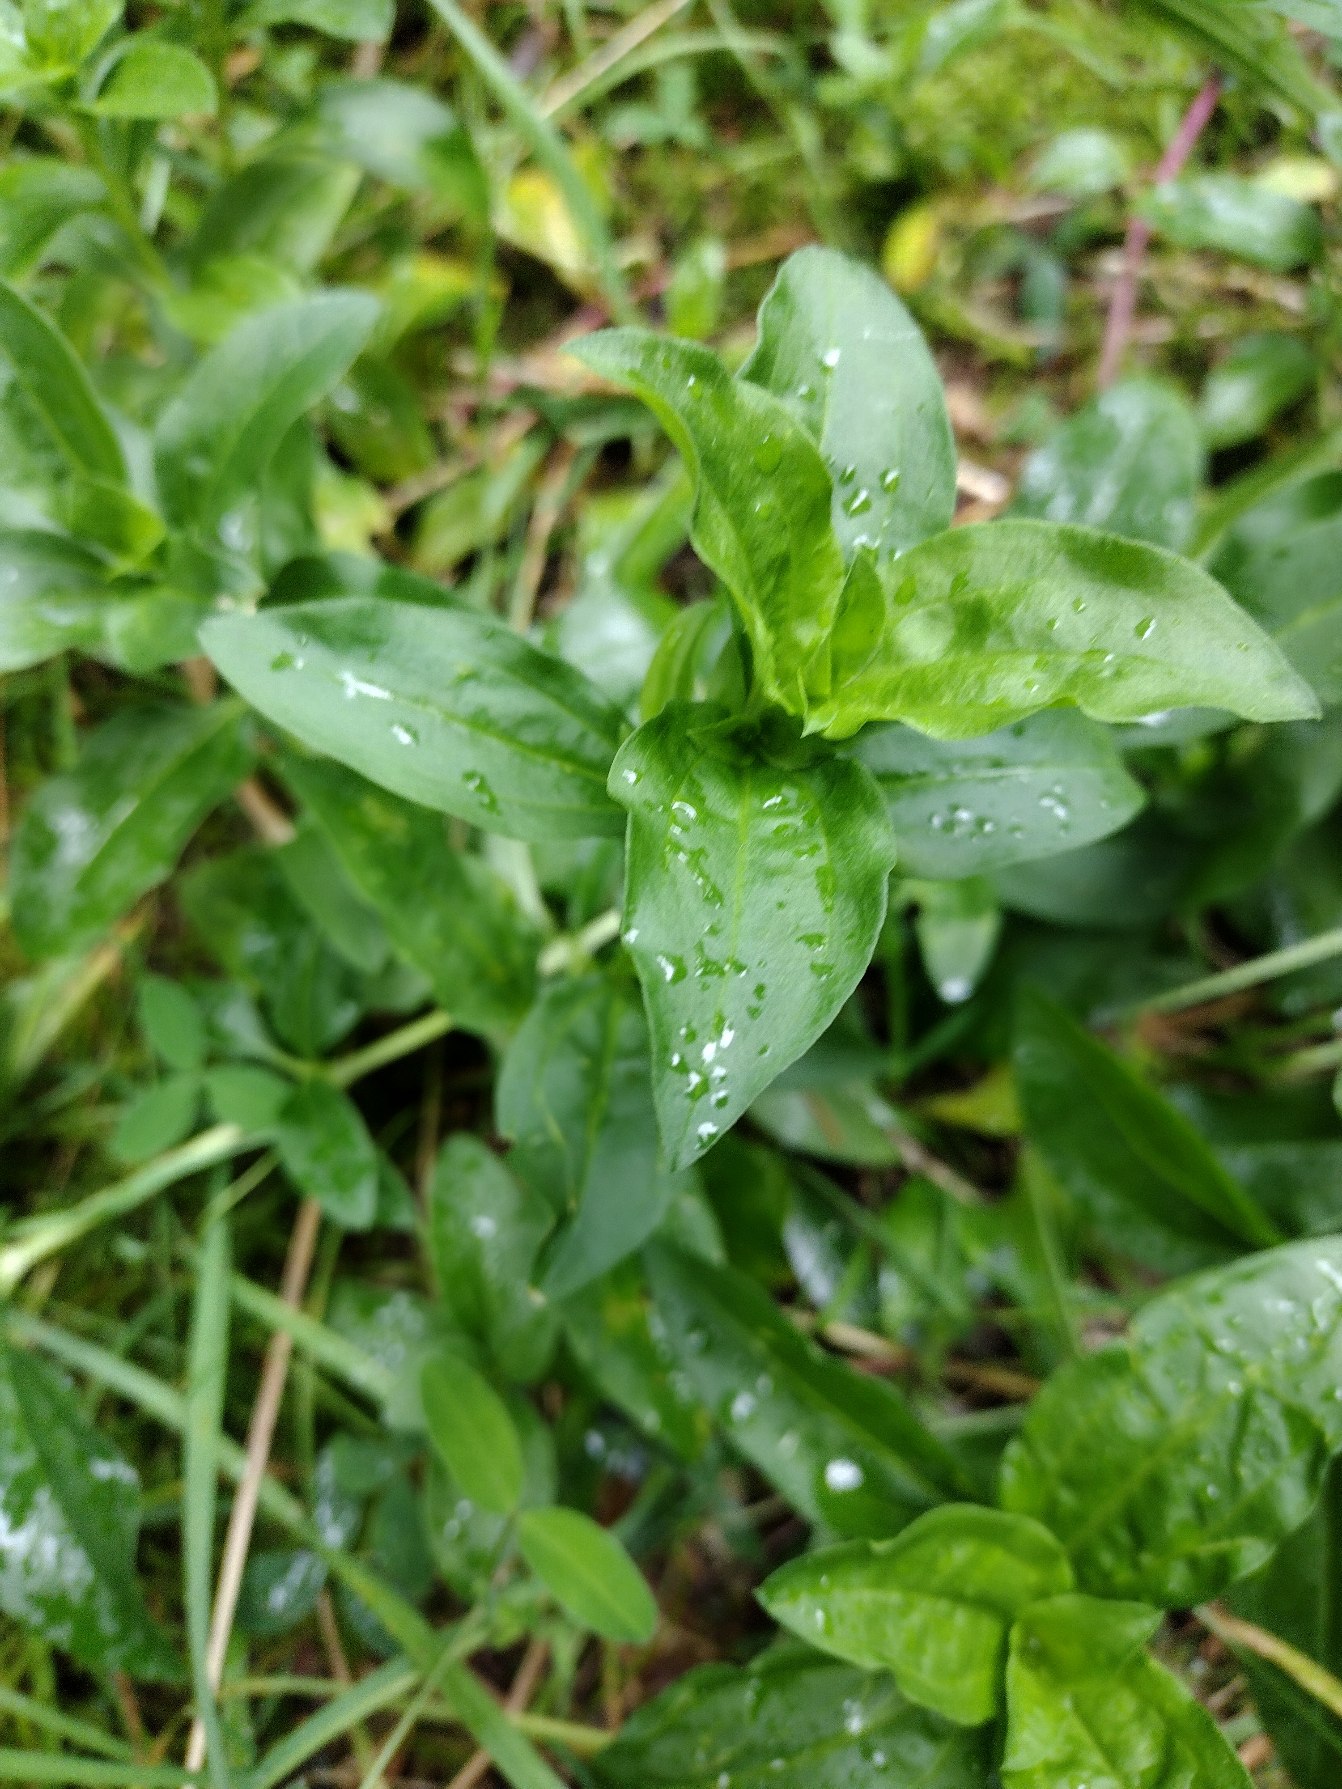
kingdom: Plantae
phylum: Tracheophyta
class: Magnoliopsida
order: Caryophyllales
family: Caryophyllaceae
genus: Saponaria
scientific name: Saponaria officinalis
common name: Sæbeurt
